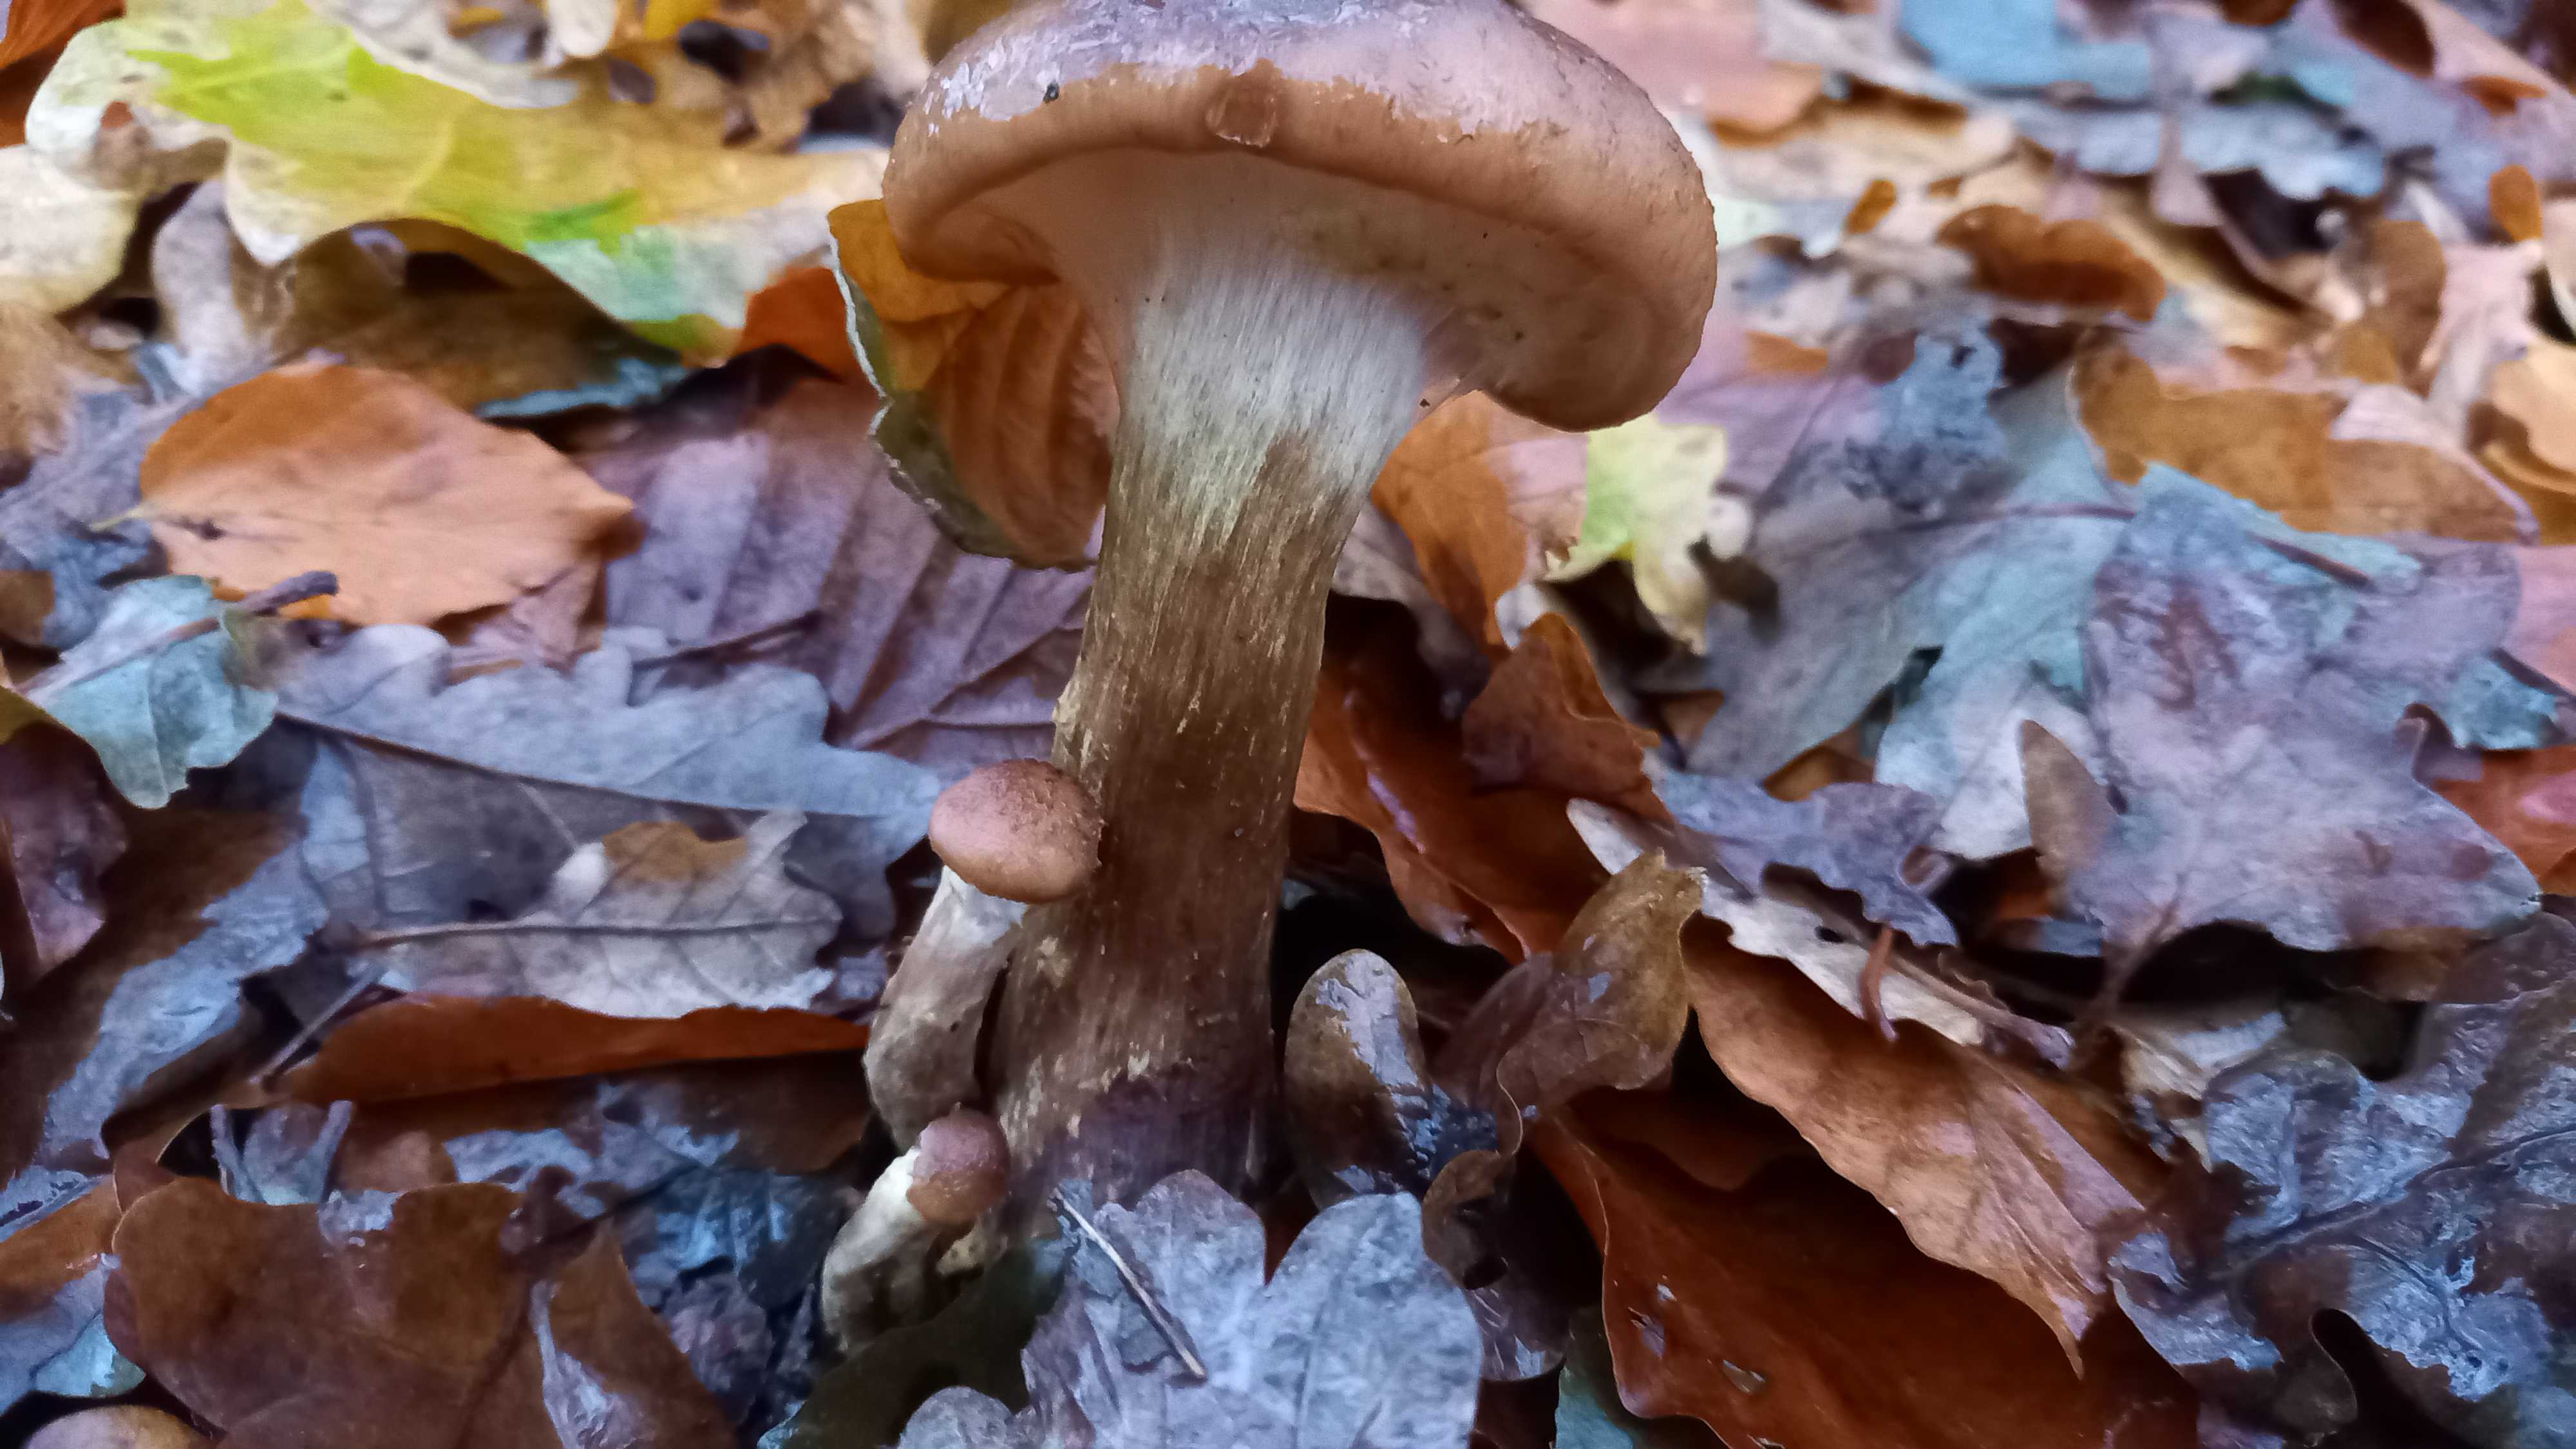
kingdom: Fungi
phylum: Basidiomycota
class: Agaricomycetes
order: Agaricales
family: Physalacriaceae
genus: Armillaria
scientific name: Armillaria lutea
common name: køllestokket honningsvamp
